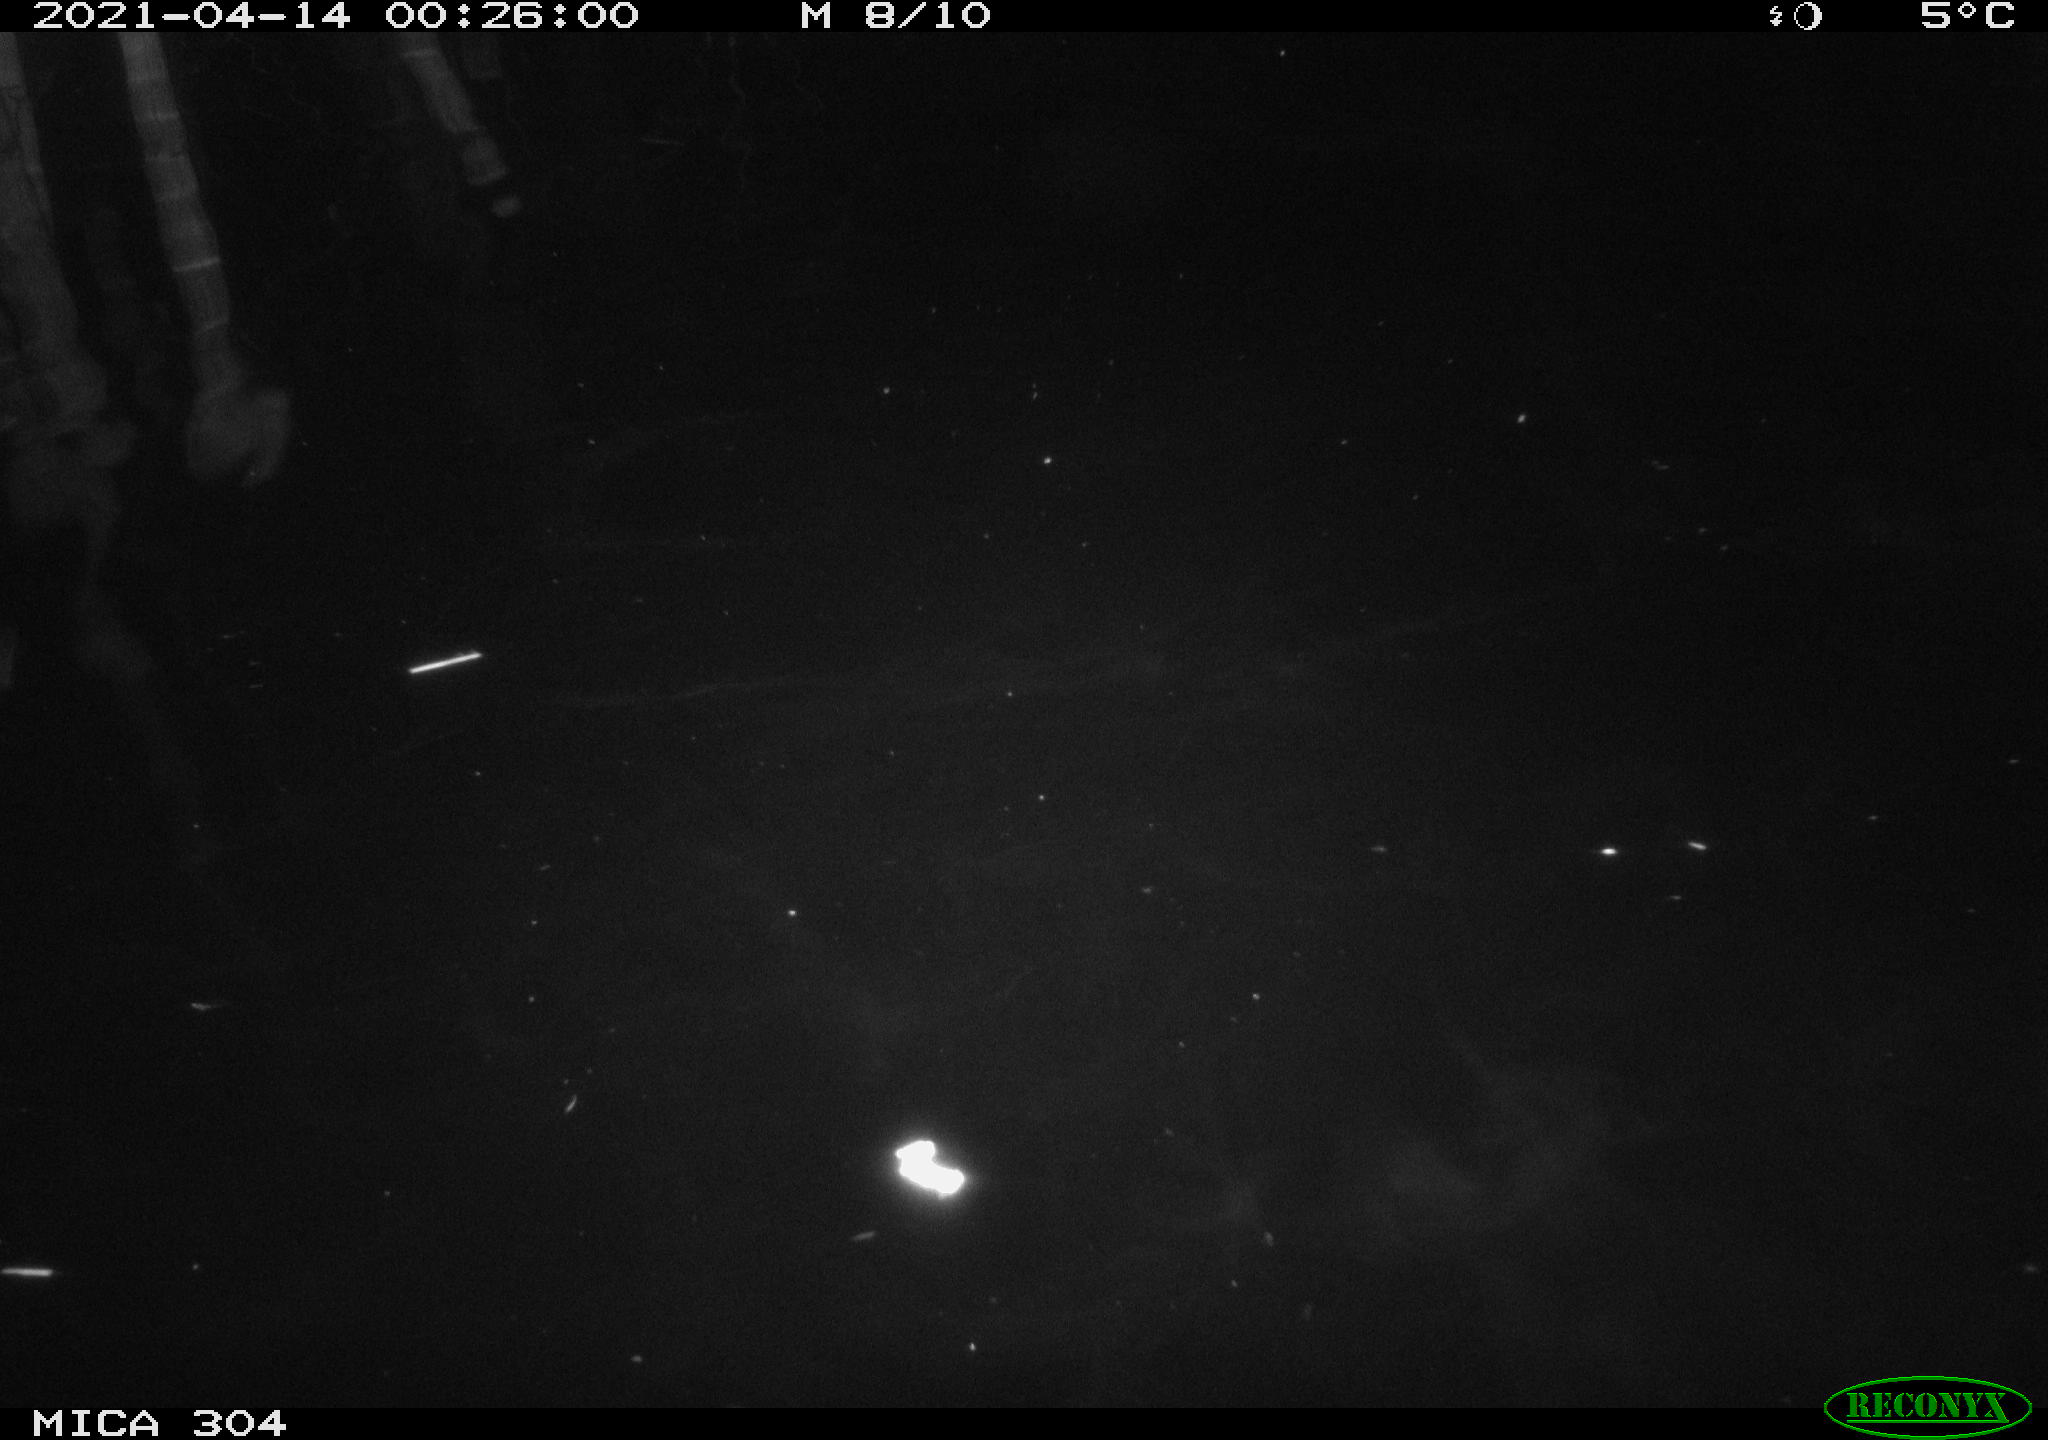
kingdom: Animalia
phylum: Chordata
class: Aves
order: Anseriformes
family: Anatidae
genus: Anas
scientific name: Anas
